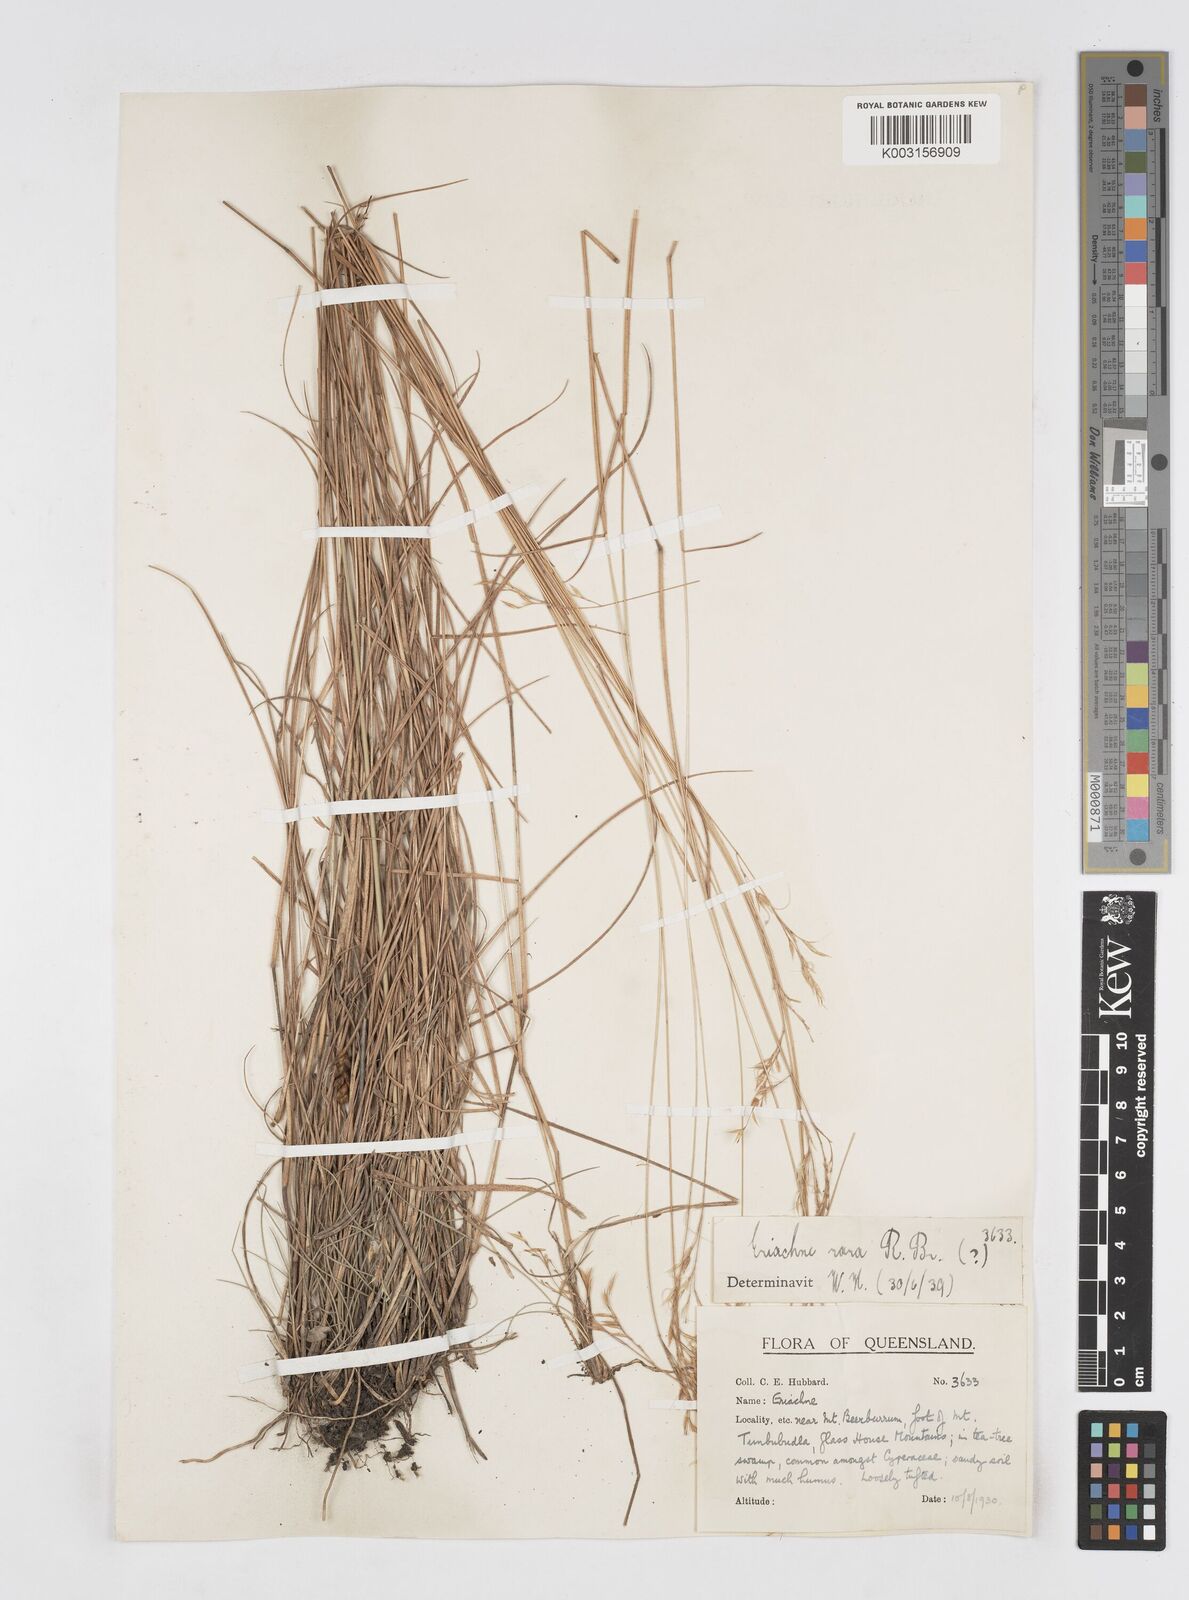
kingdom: Plantae
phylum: Tracheophyta
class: Liliopsida
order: Poales
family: Poaceae
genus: Eriachne
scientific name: Eriachne rara
